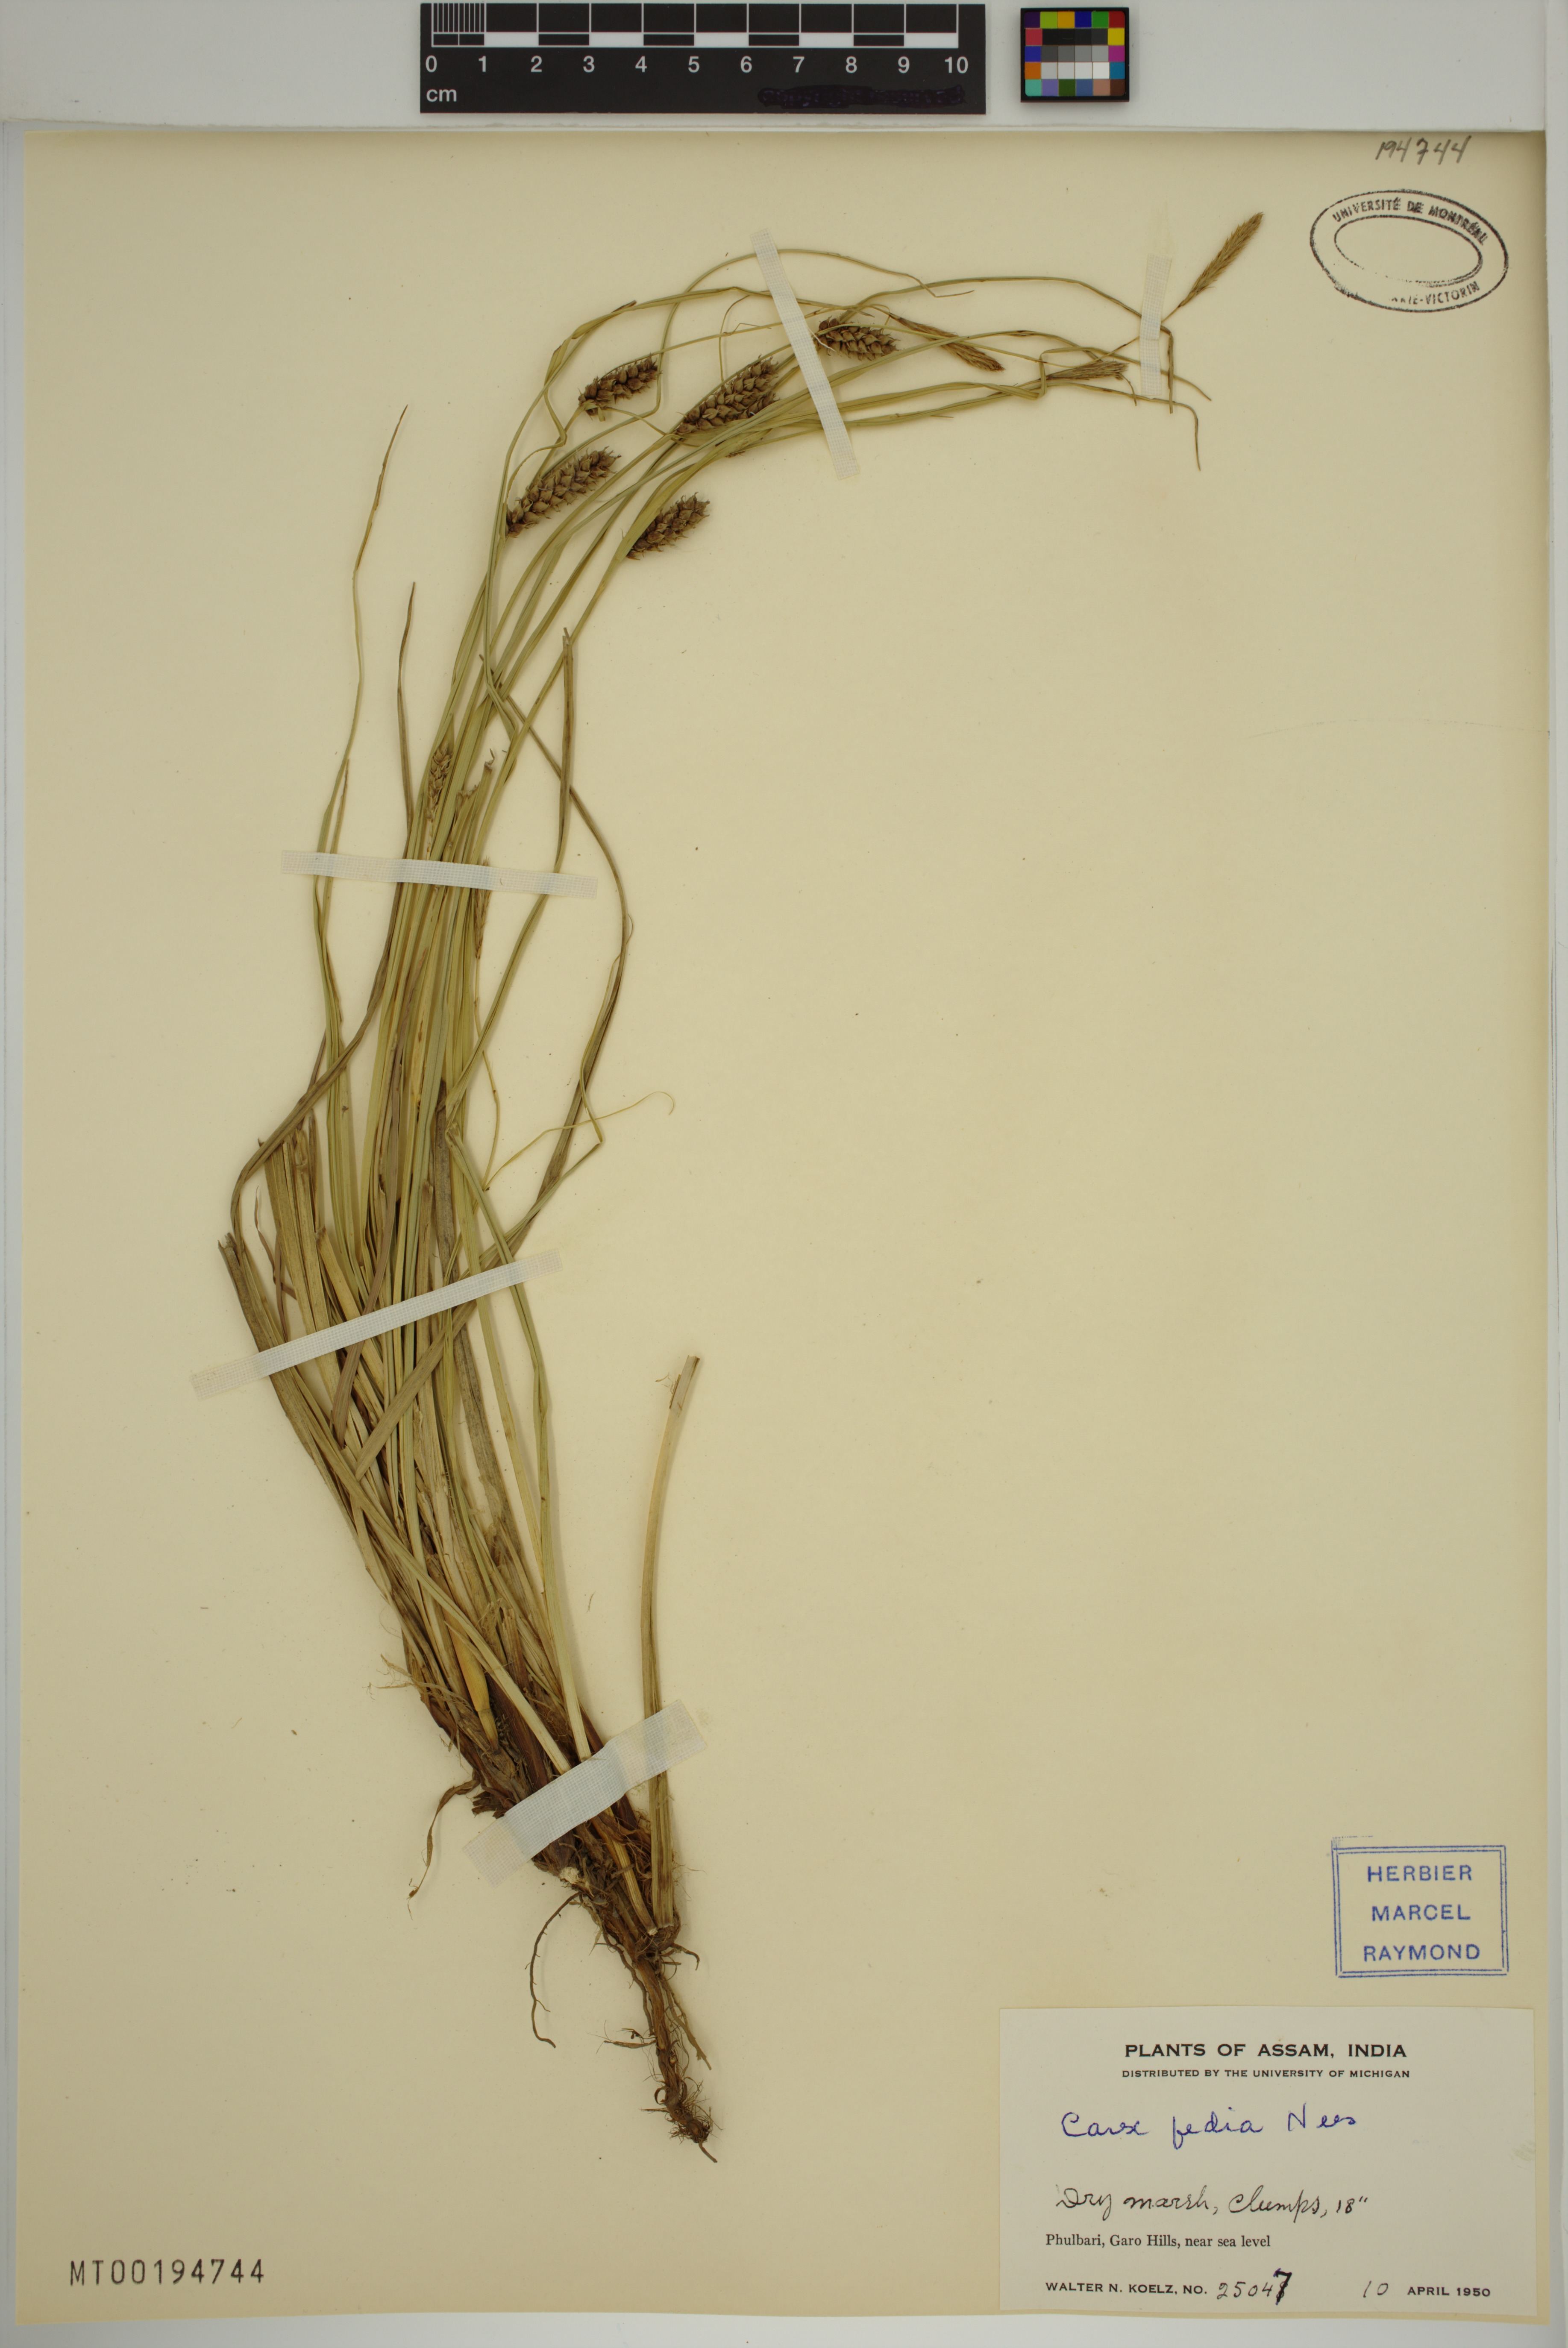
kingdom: Plantae
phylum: Tracheophyta
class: Liliopsida
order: Poales
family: Cyperaceae
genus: Carex
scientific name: Carex fedia
